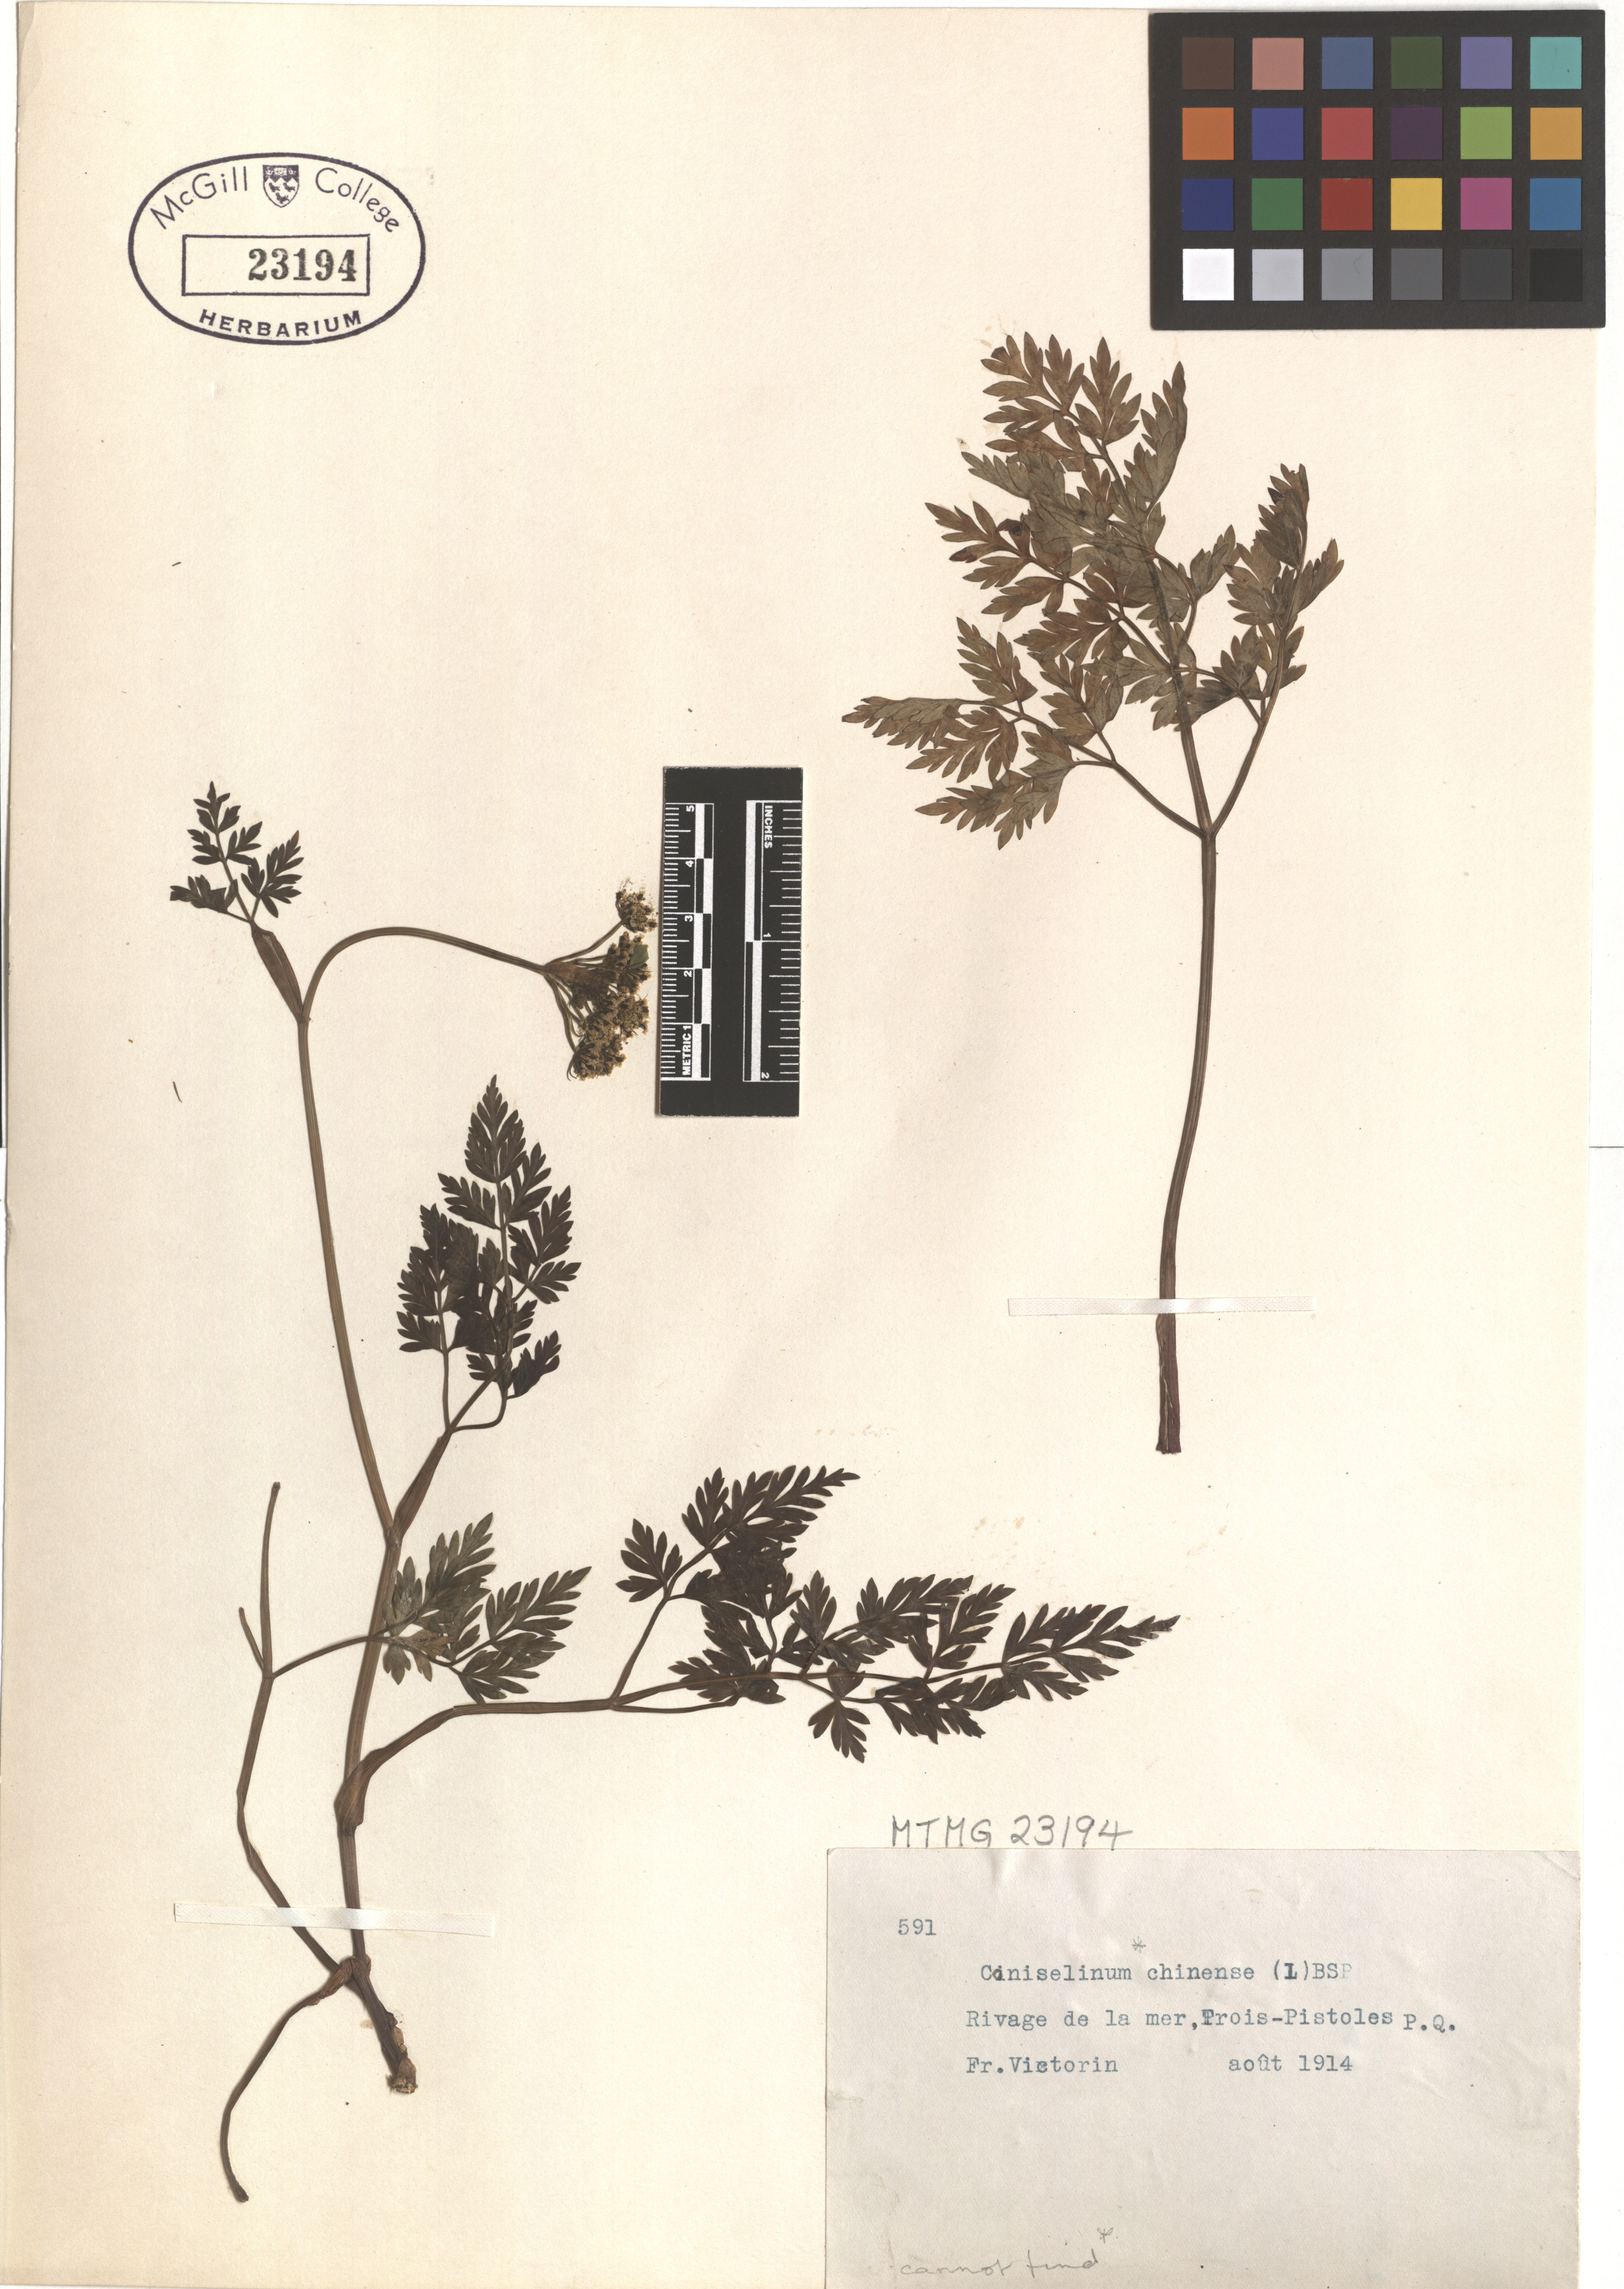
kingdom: Plantae
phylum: Tracheophyta
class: Magnoliopsida
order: Apiales
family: Apiaceae
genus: Kreidion
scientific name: Kreidion chinensis
